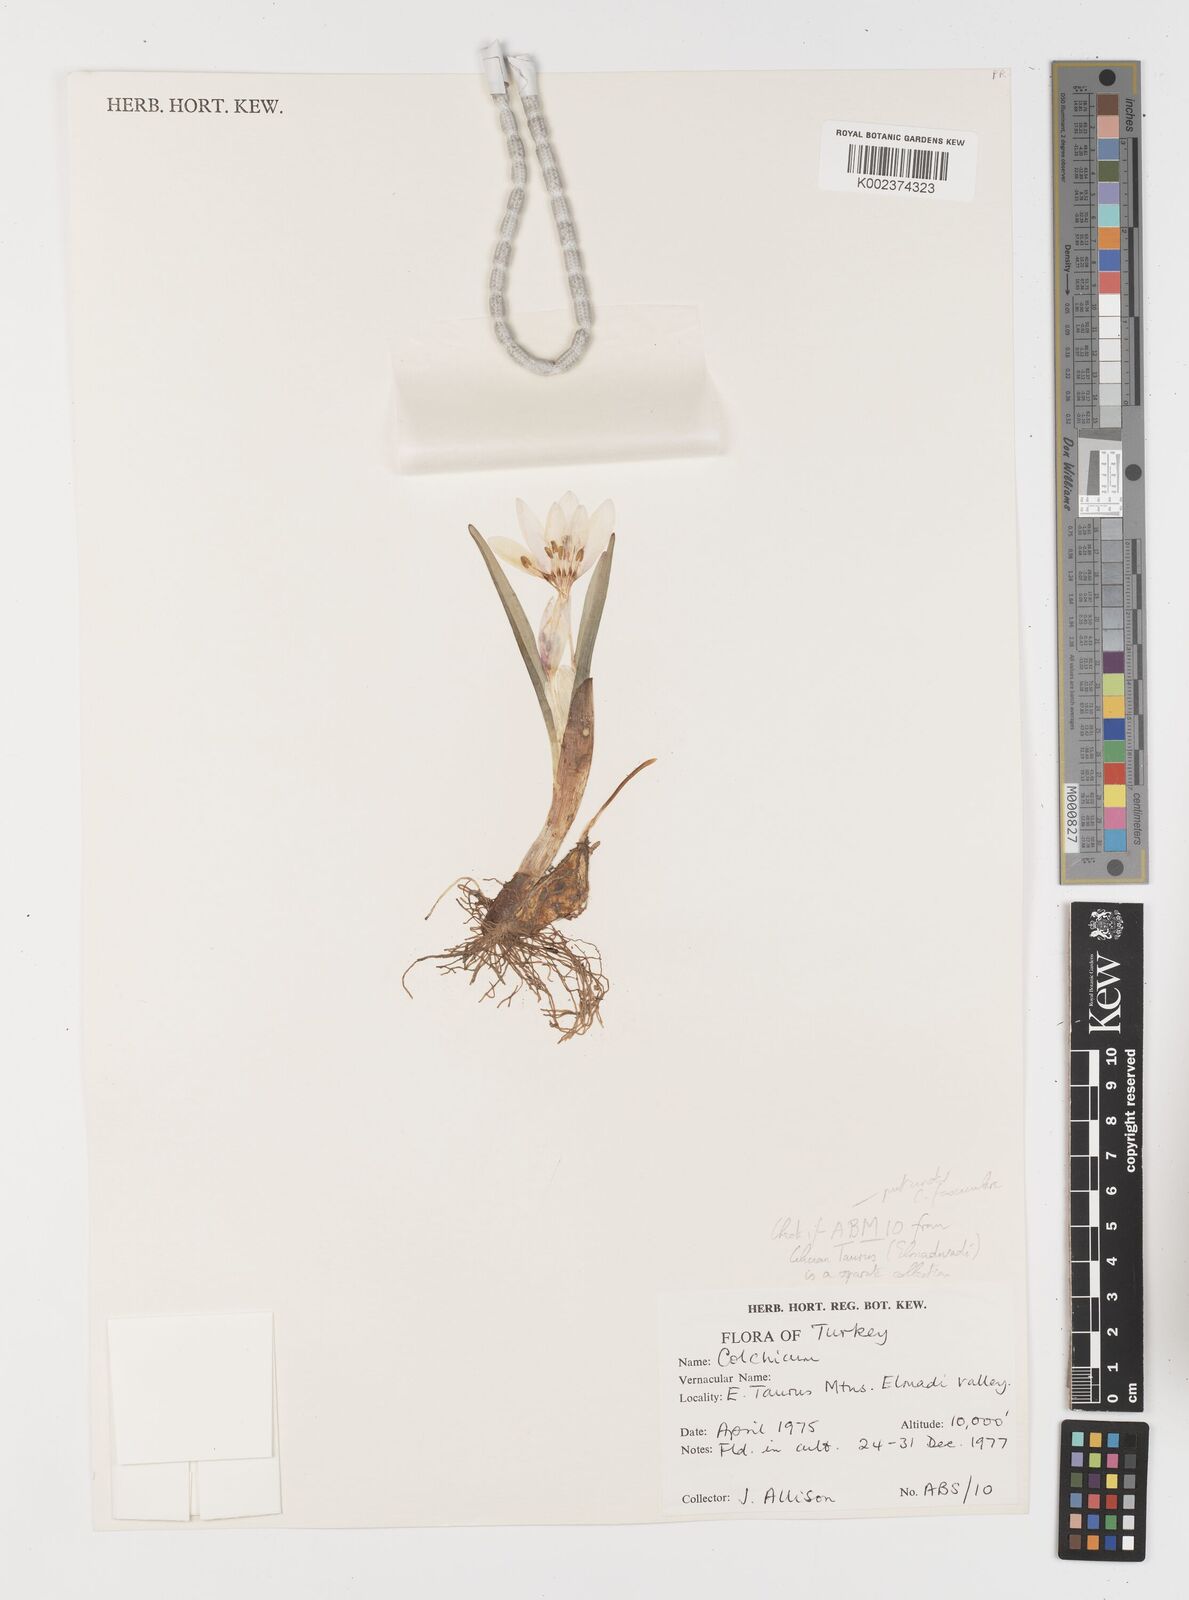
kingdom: Plantae
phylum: Tracheophyta
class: Liliopsida
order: Liliales
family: Colchicaceae
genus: Colchicum
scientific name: Colchicum
